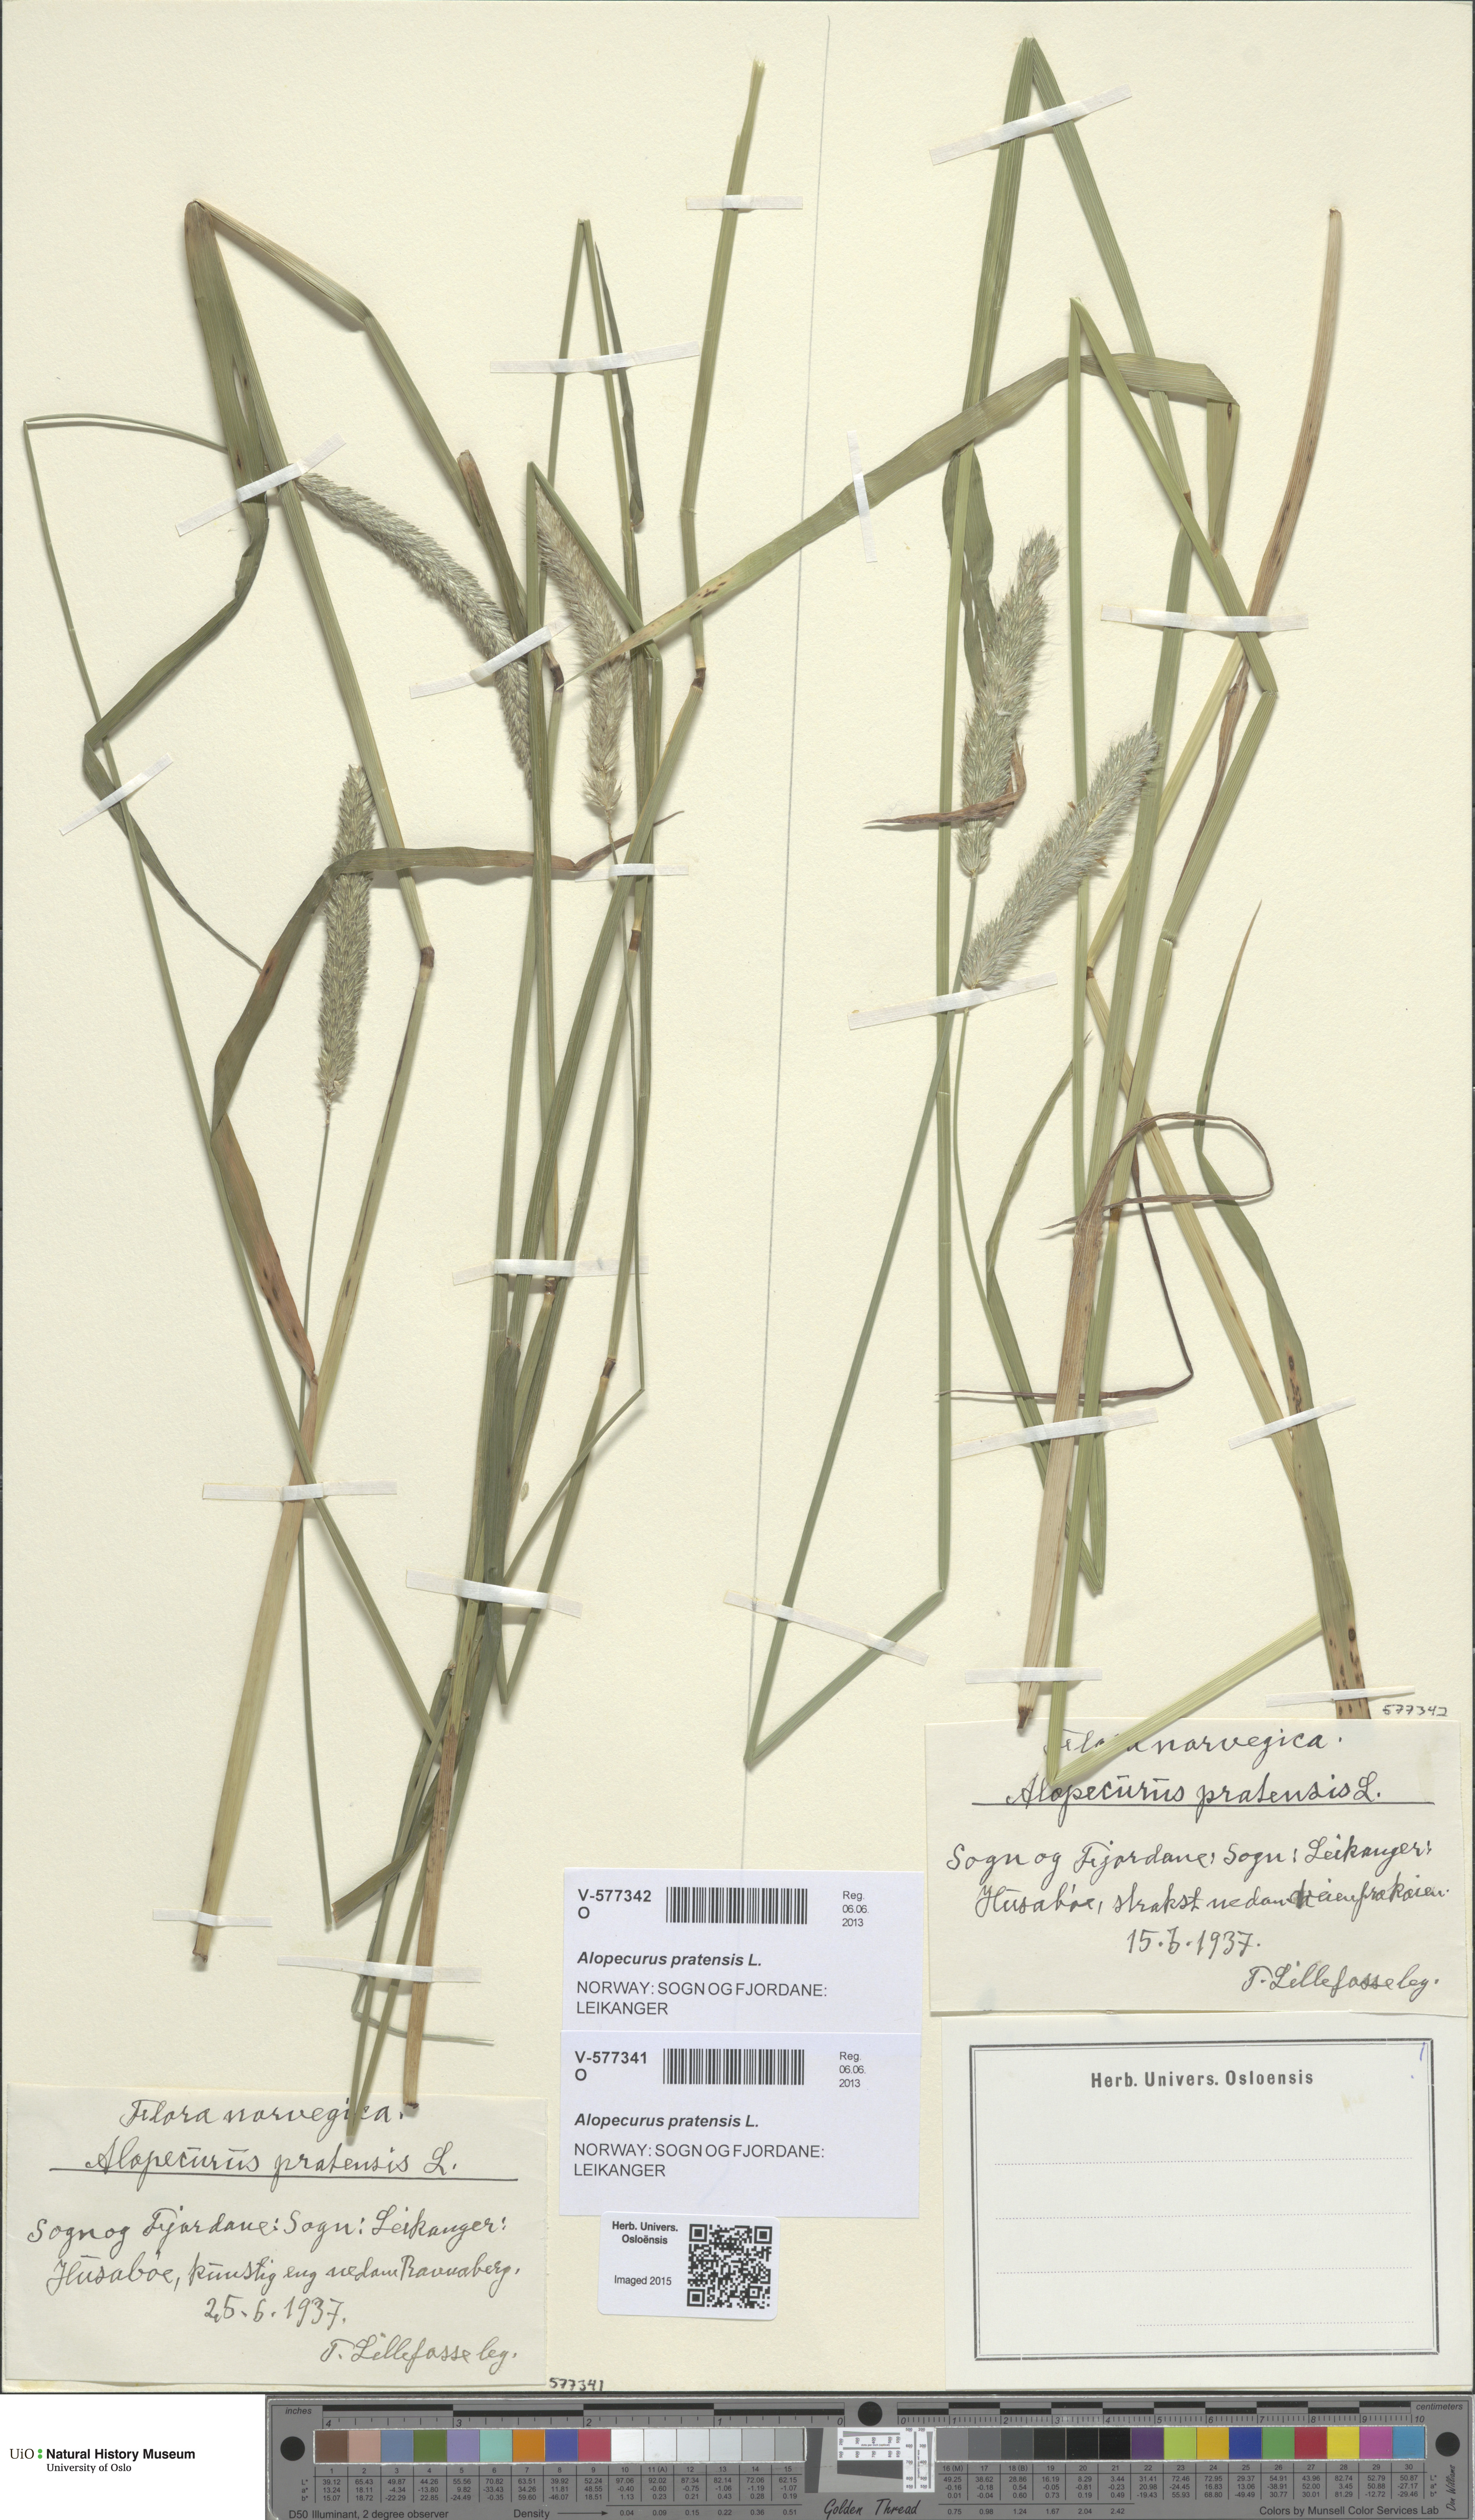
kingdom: Plantae
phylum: Tracheophyta
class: Liliopsida
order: Poales
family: Poaceae
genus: Alopecurus
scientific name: Alopecurus pratensis
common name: Meadow foxtail
